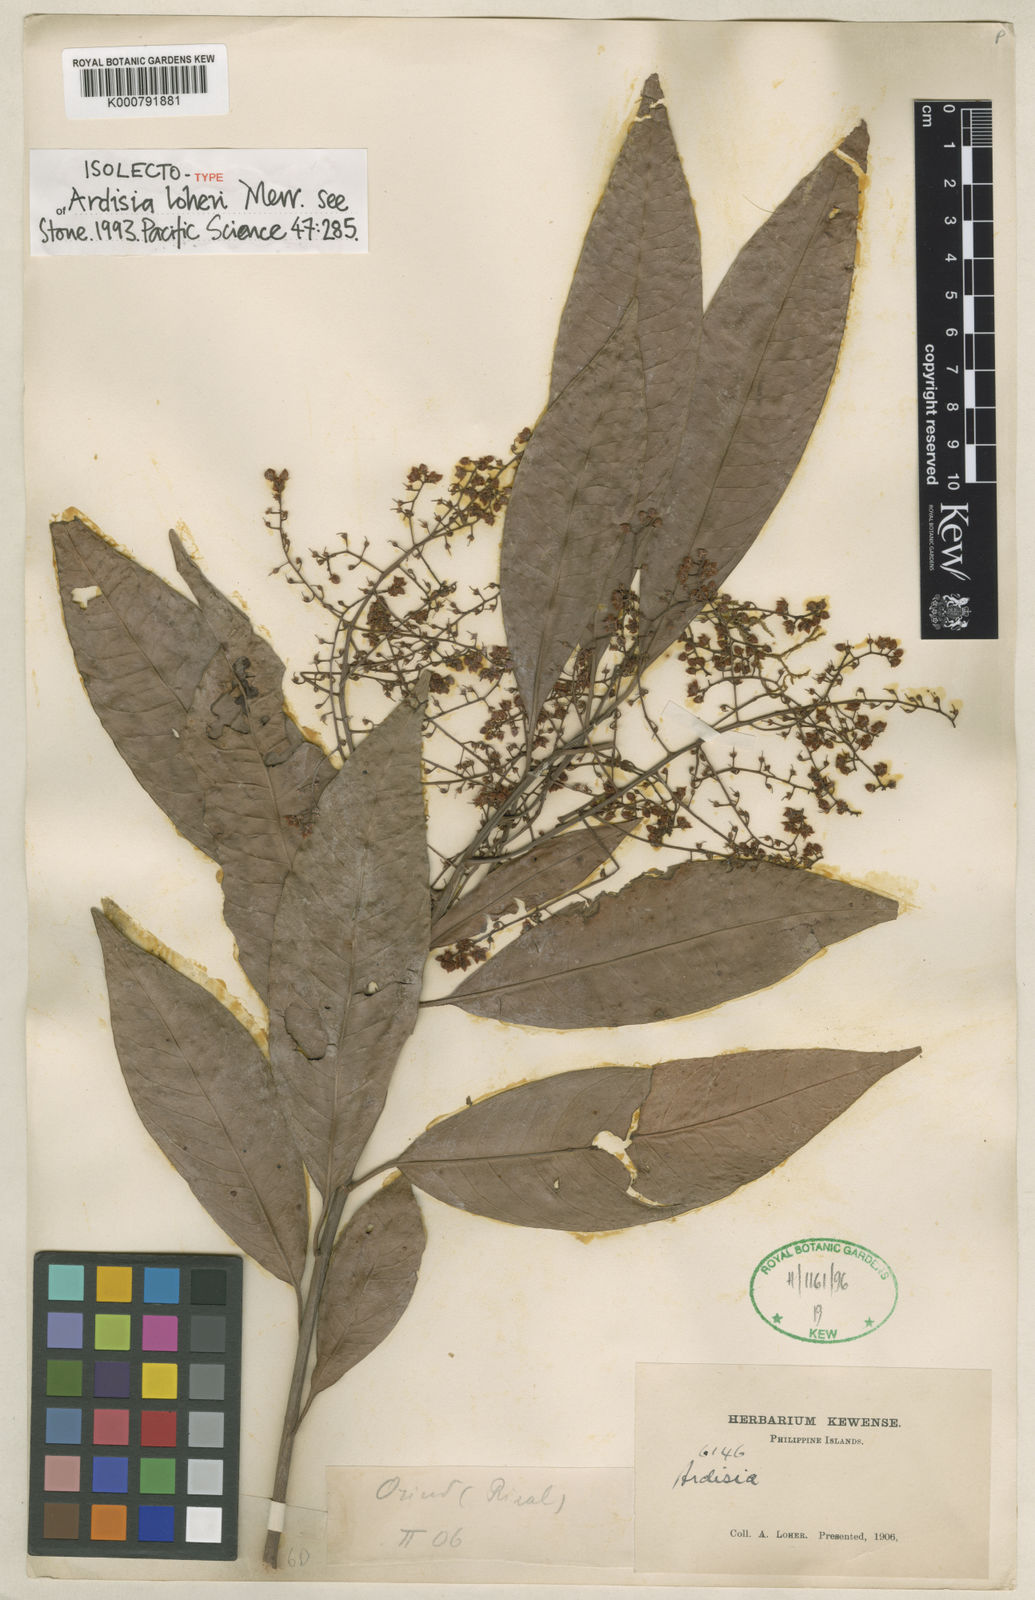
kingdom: Plantae
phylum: Tracheophyta
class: Magnoliopsida
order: Ericales
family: Primulaceae
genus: Ardisia
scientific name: Ardisia loheri
